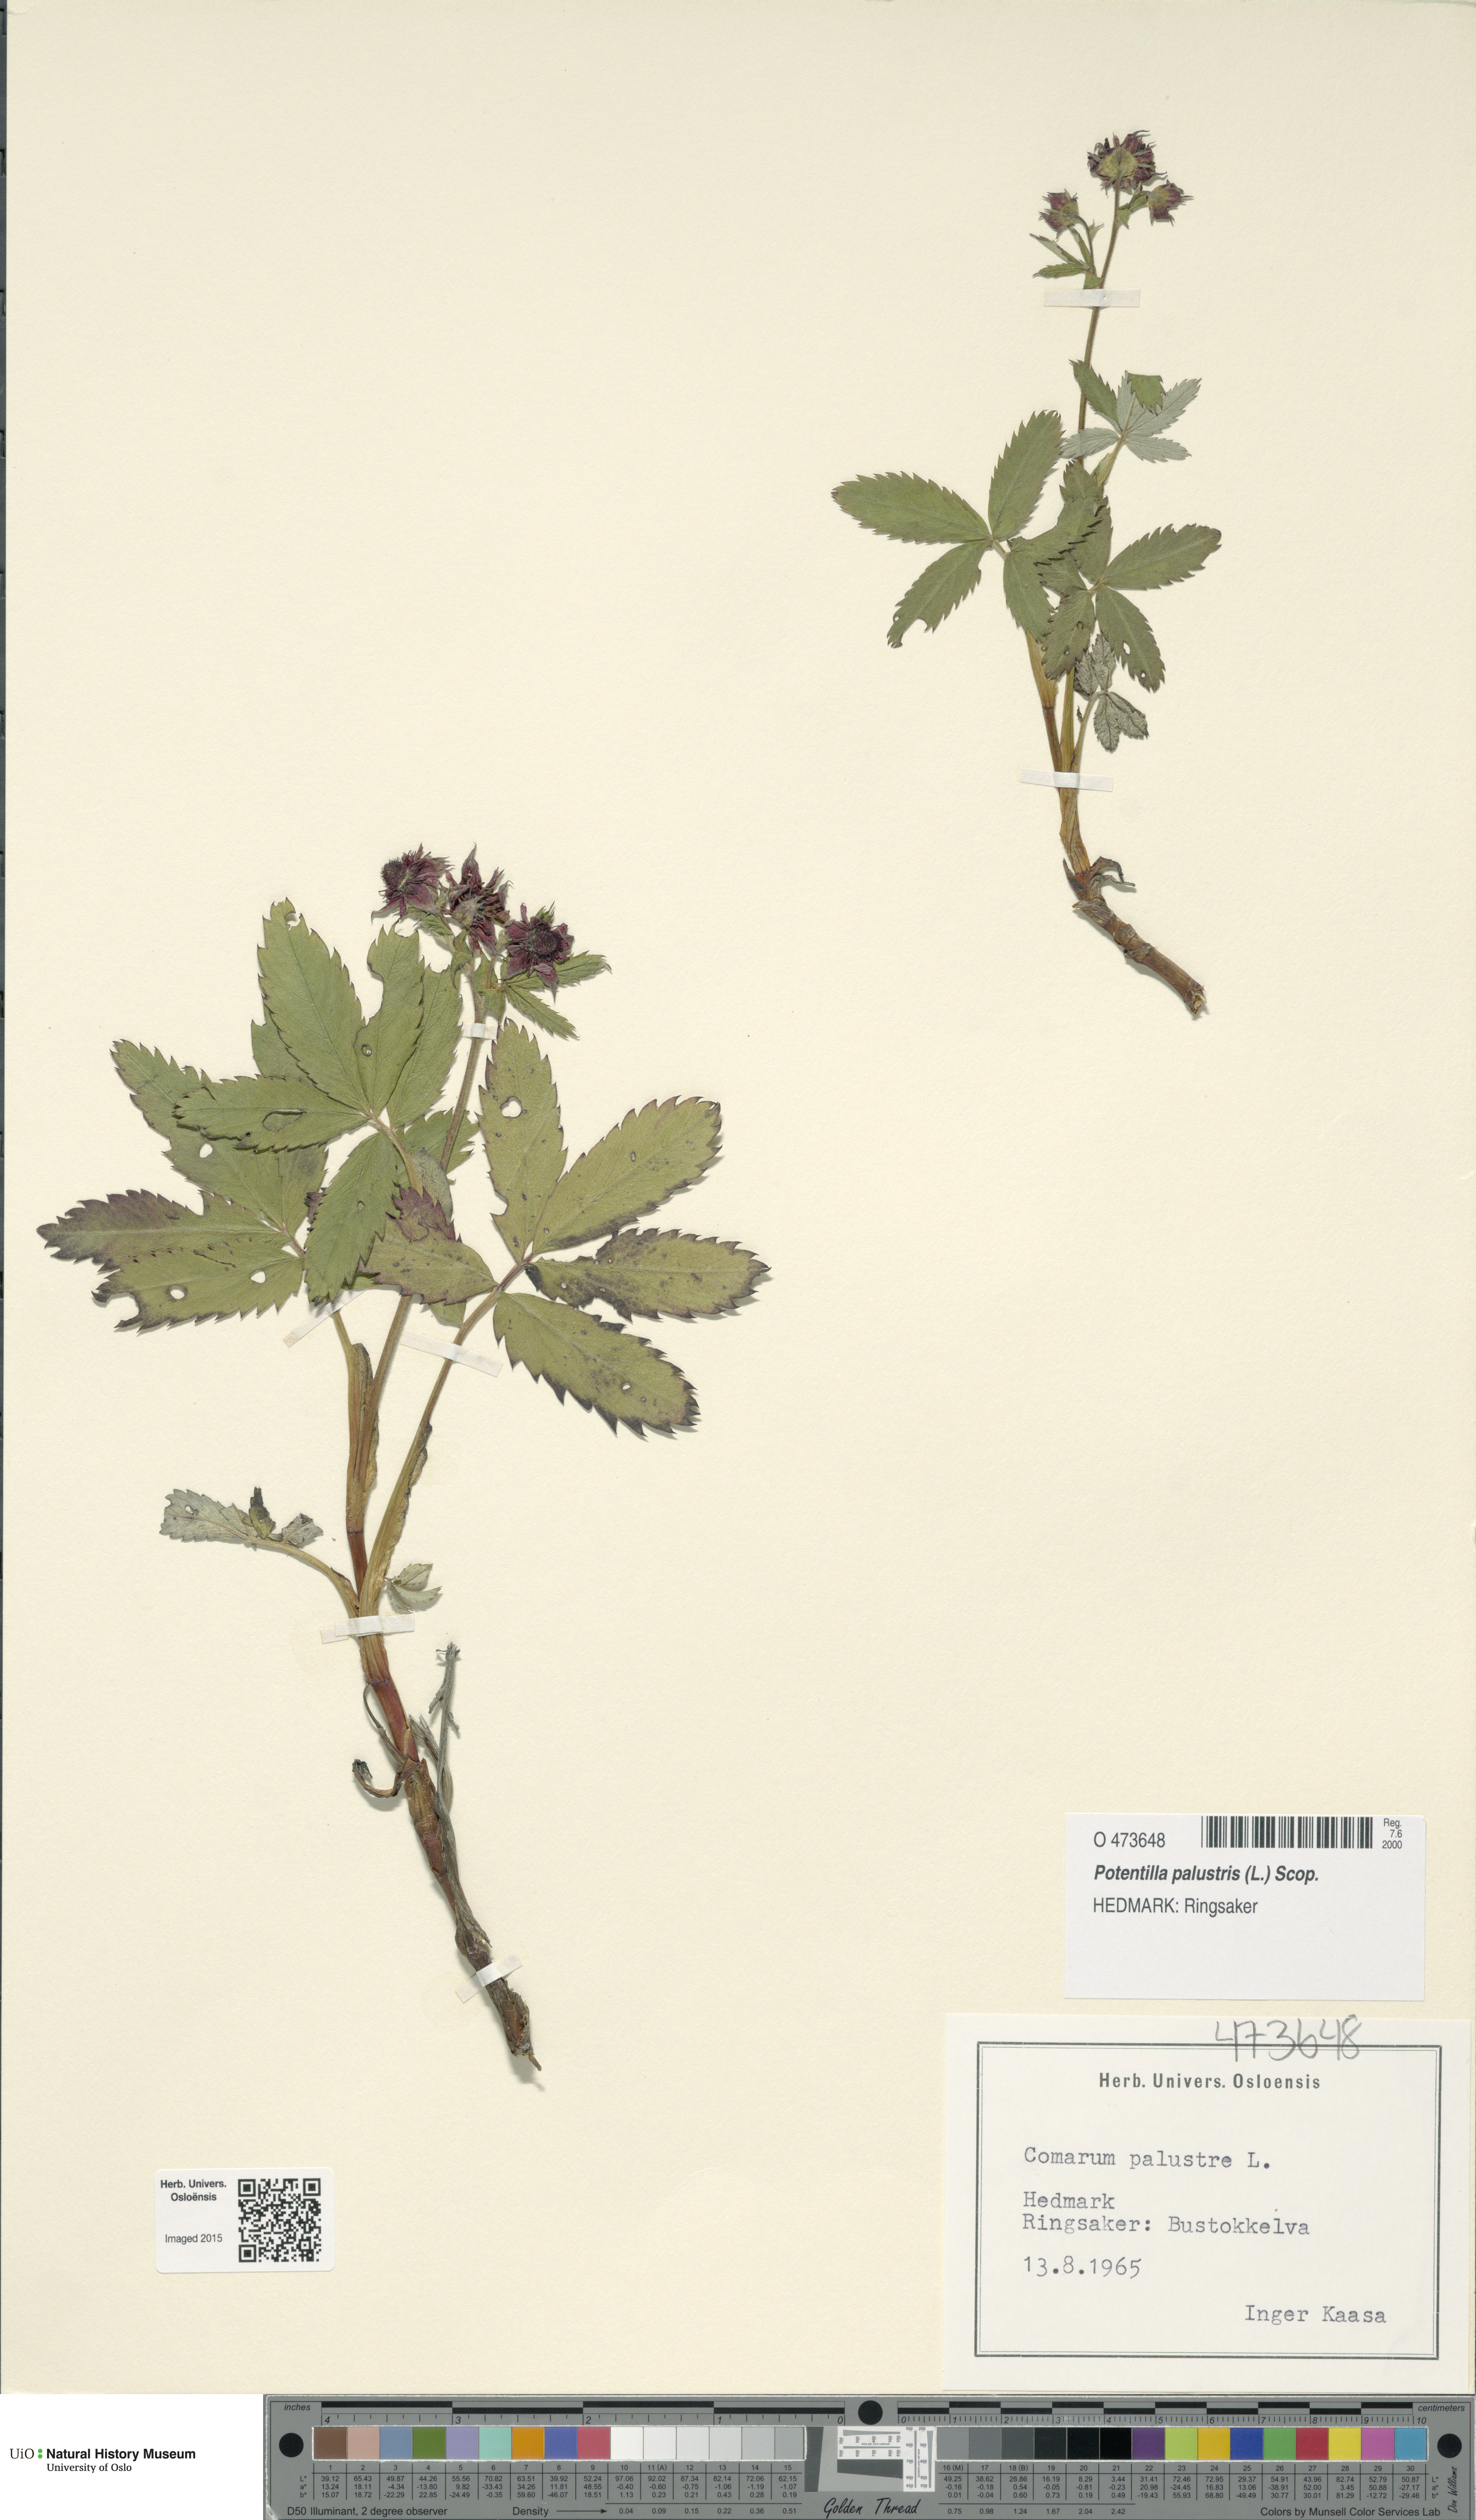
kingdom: Plantae
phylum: Tracheophyta
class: Magnoliopsida
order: Rosales
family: Rosaceae
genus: Comarum
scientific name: Comarum palustre
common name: Marsh cinquefoil
